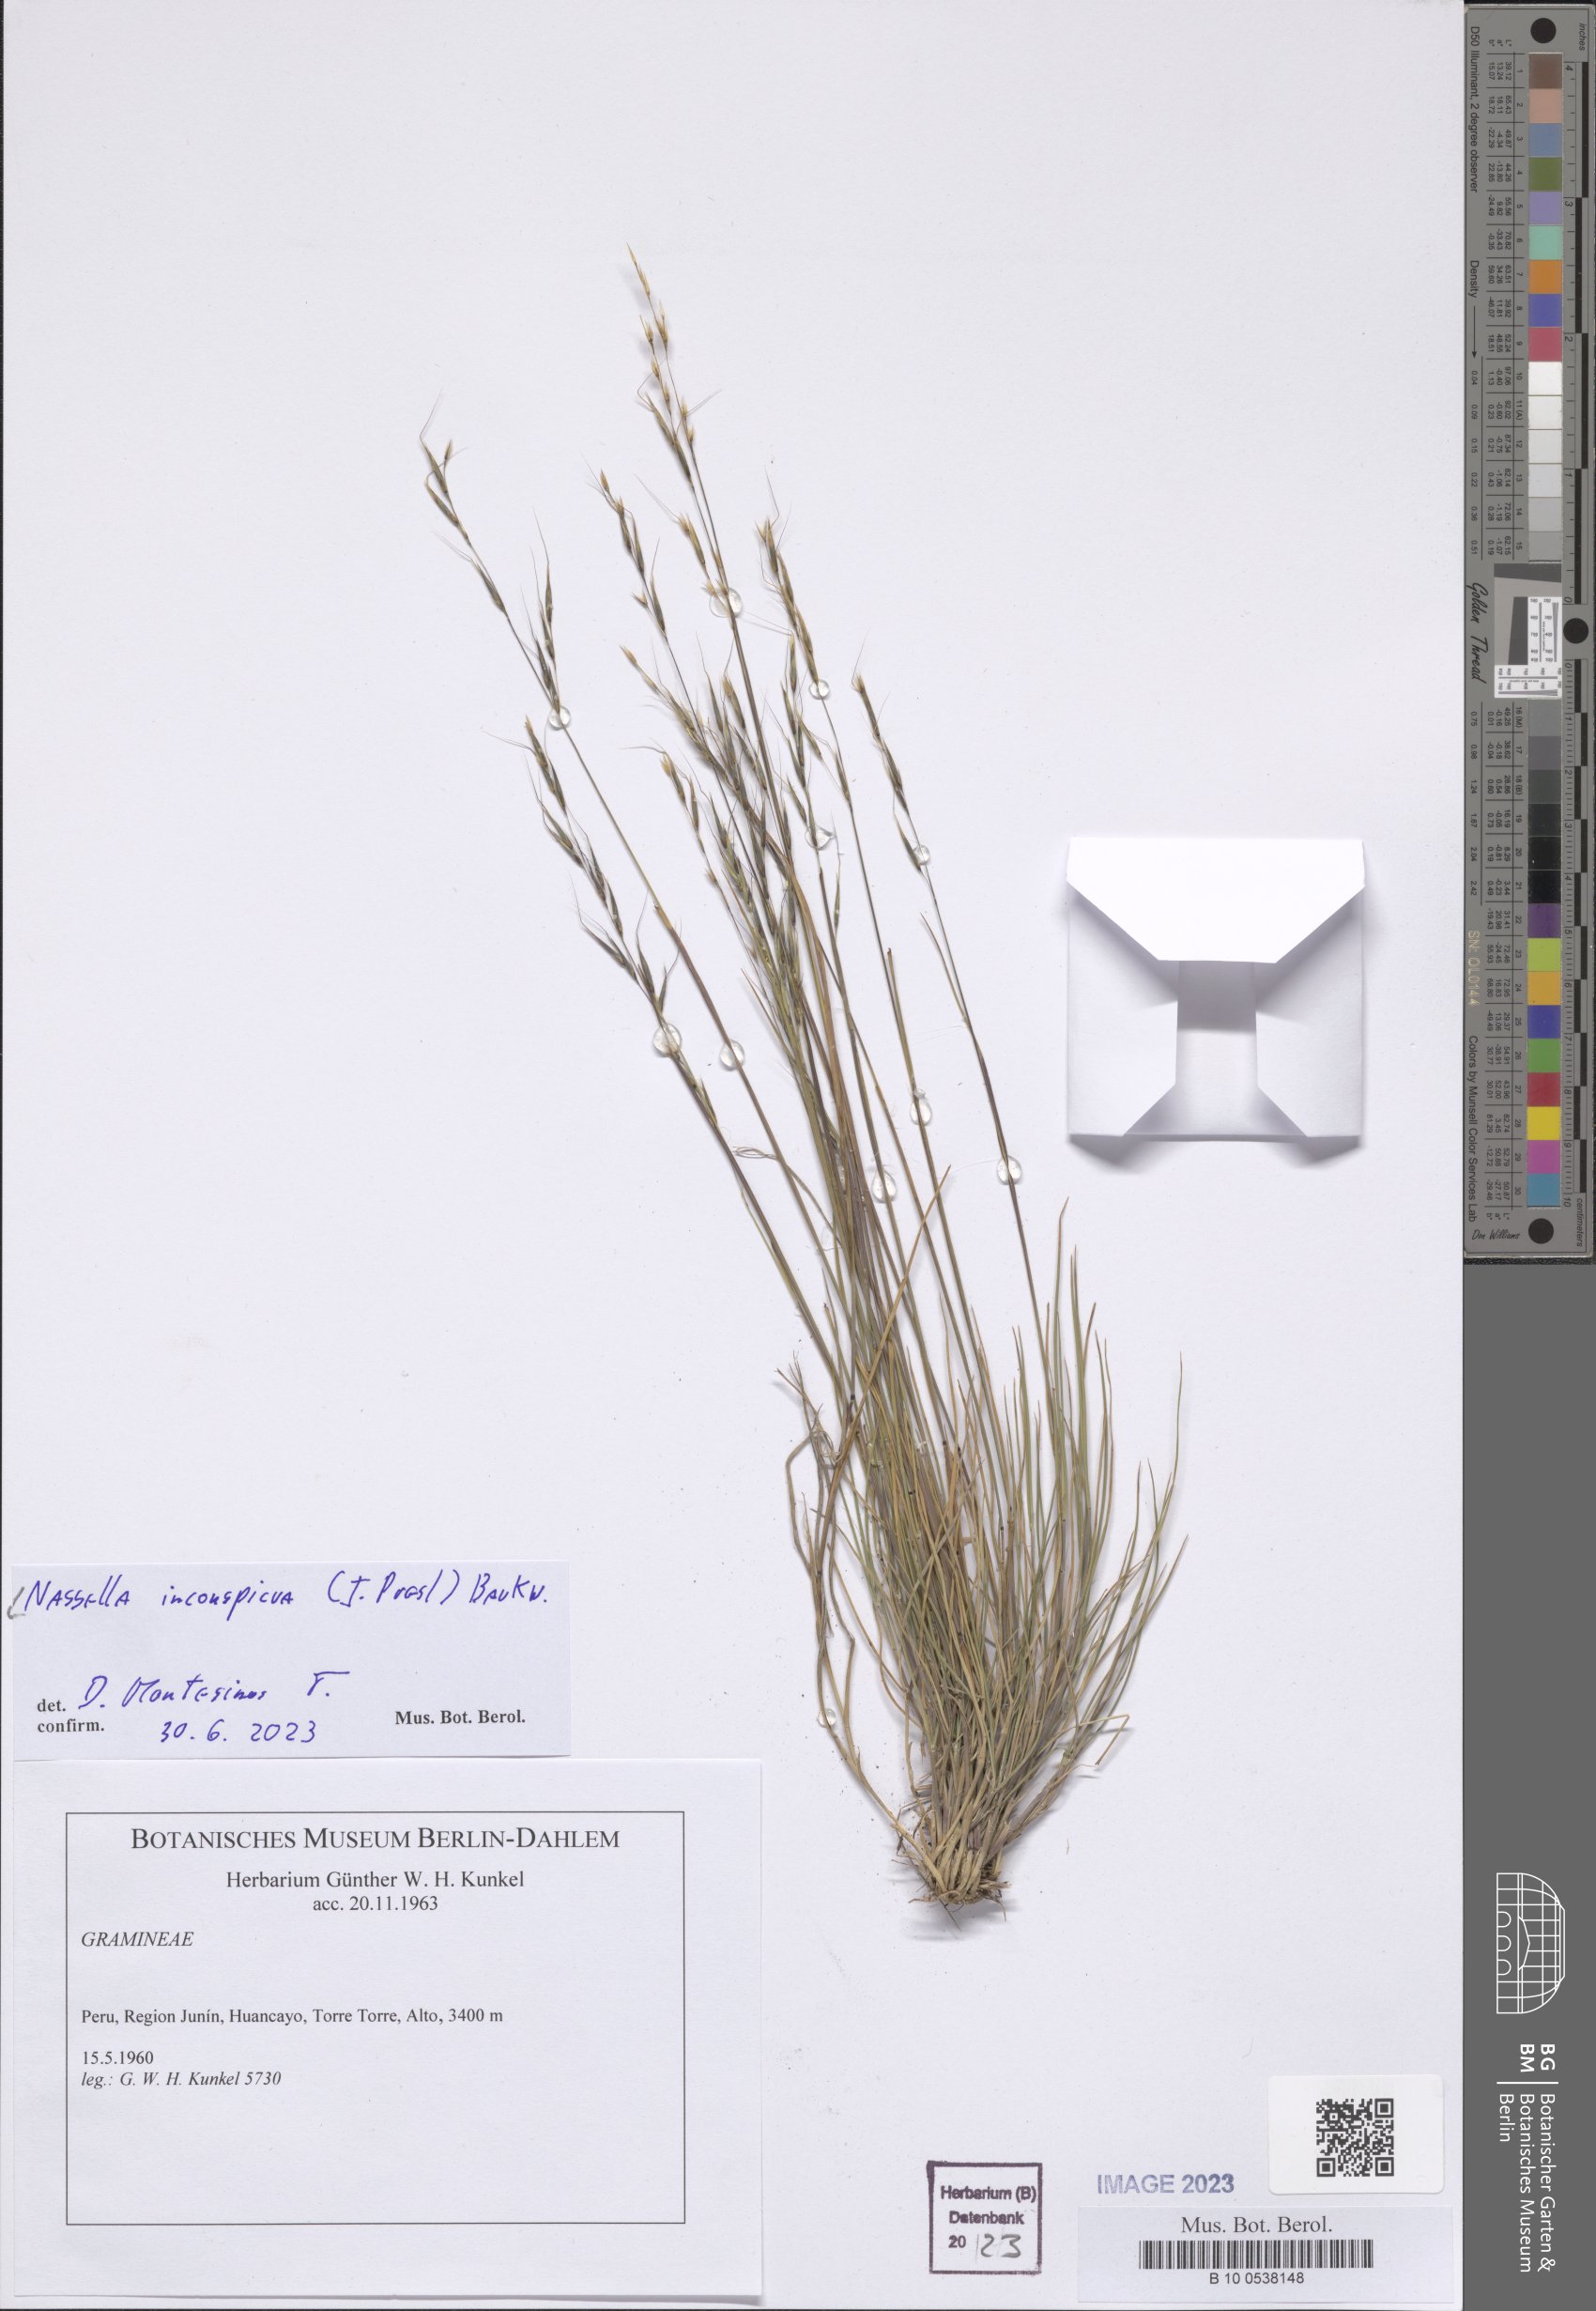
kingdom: Plantae
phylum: Tracheophyta
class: Liliopsida
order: Poales
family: Poaceae
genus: Nassella
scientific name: Nassella inconspicua
